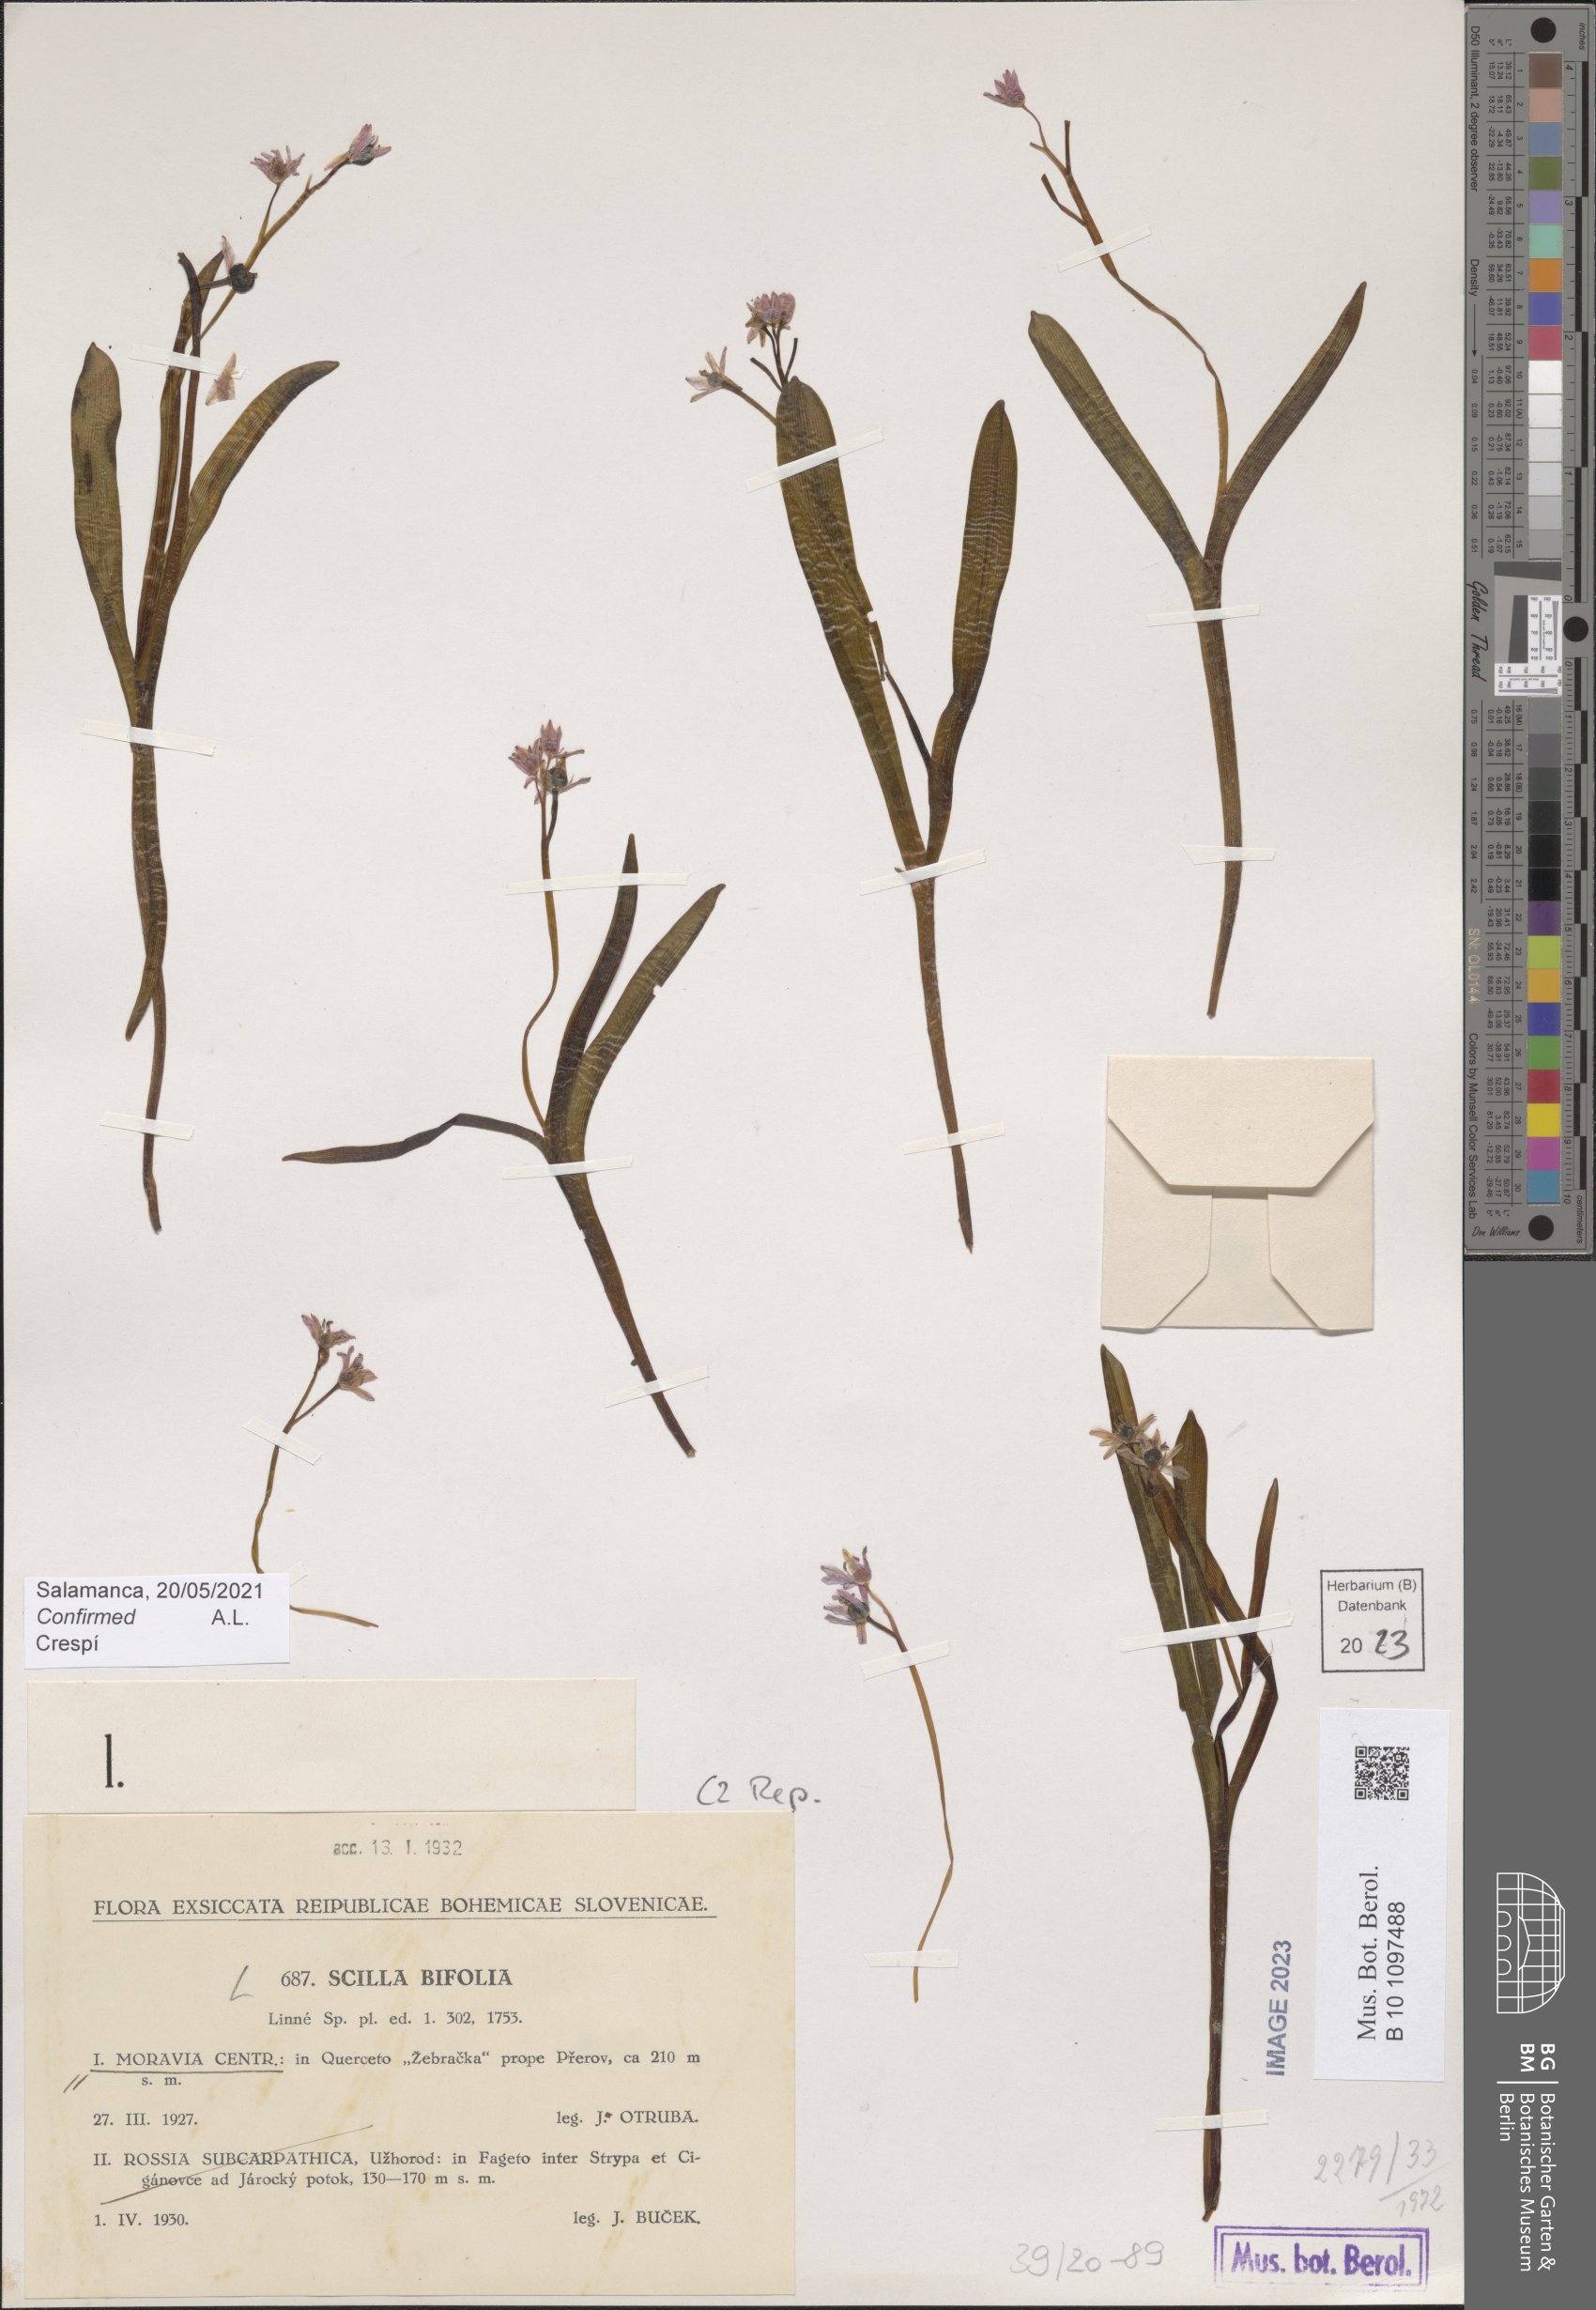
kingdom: Plantae
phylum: Tracheophyta
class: Liliopsida
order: Asparagales
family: Asparagaceae
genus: Scilla
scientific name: Scilla bifolia
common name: Alpine squill
